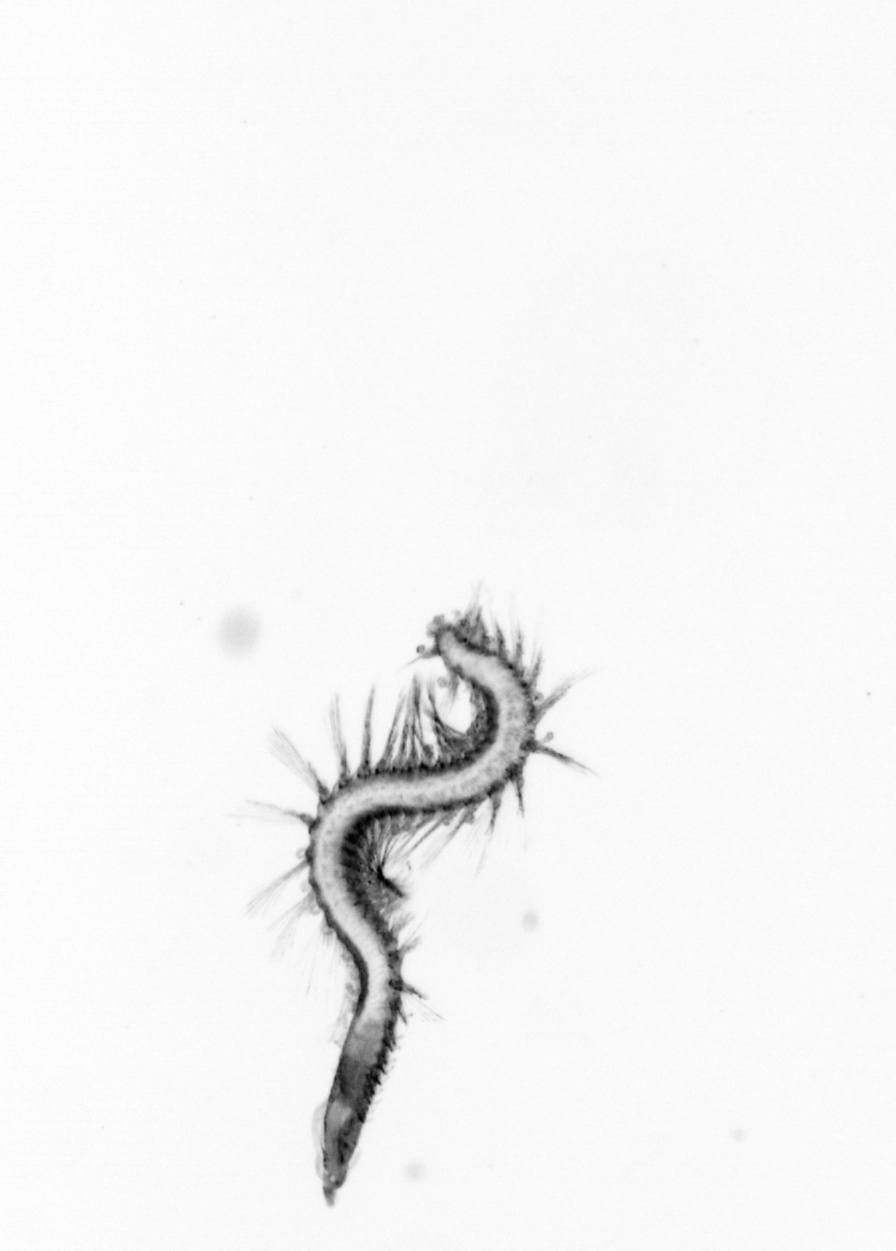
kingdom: Animalia
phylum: Annelida
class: Polychaeta
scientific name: Polychaeta
